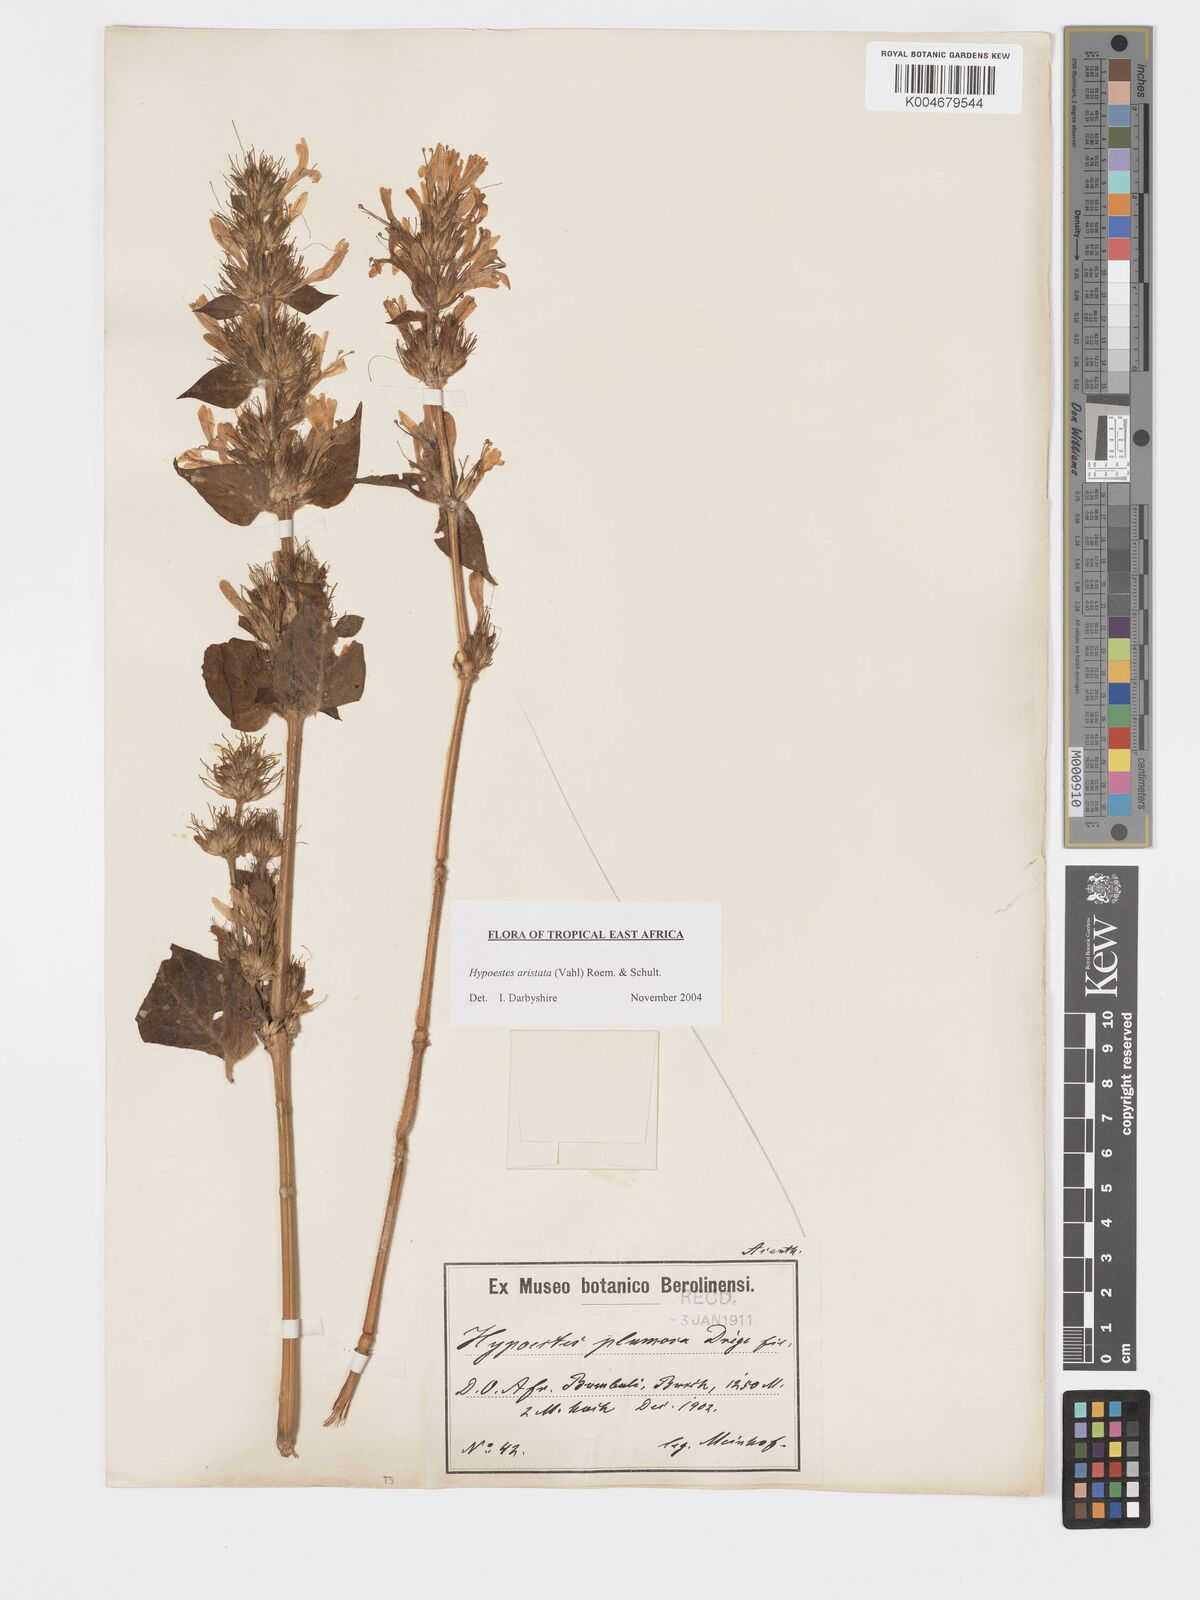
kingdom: Plantae
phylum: Tracheophyta
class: Magnoliopsida
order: Lamiales
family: Acanthaceae
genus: Hypoestes
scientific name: Hypoestes aristata
